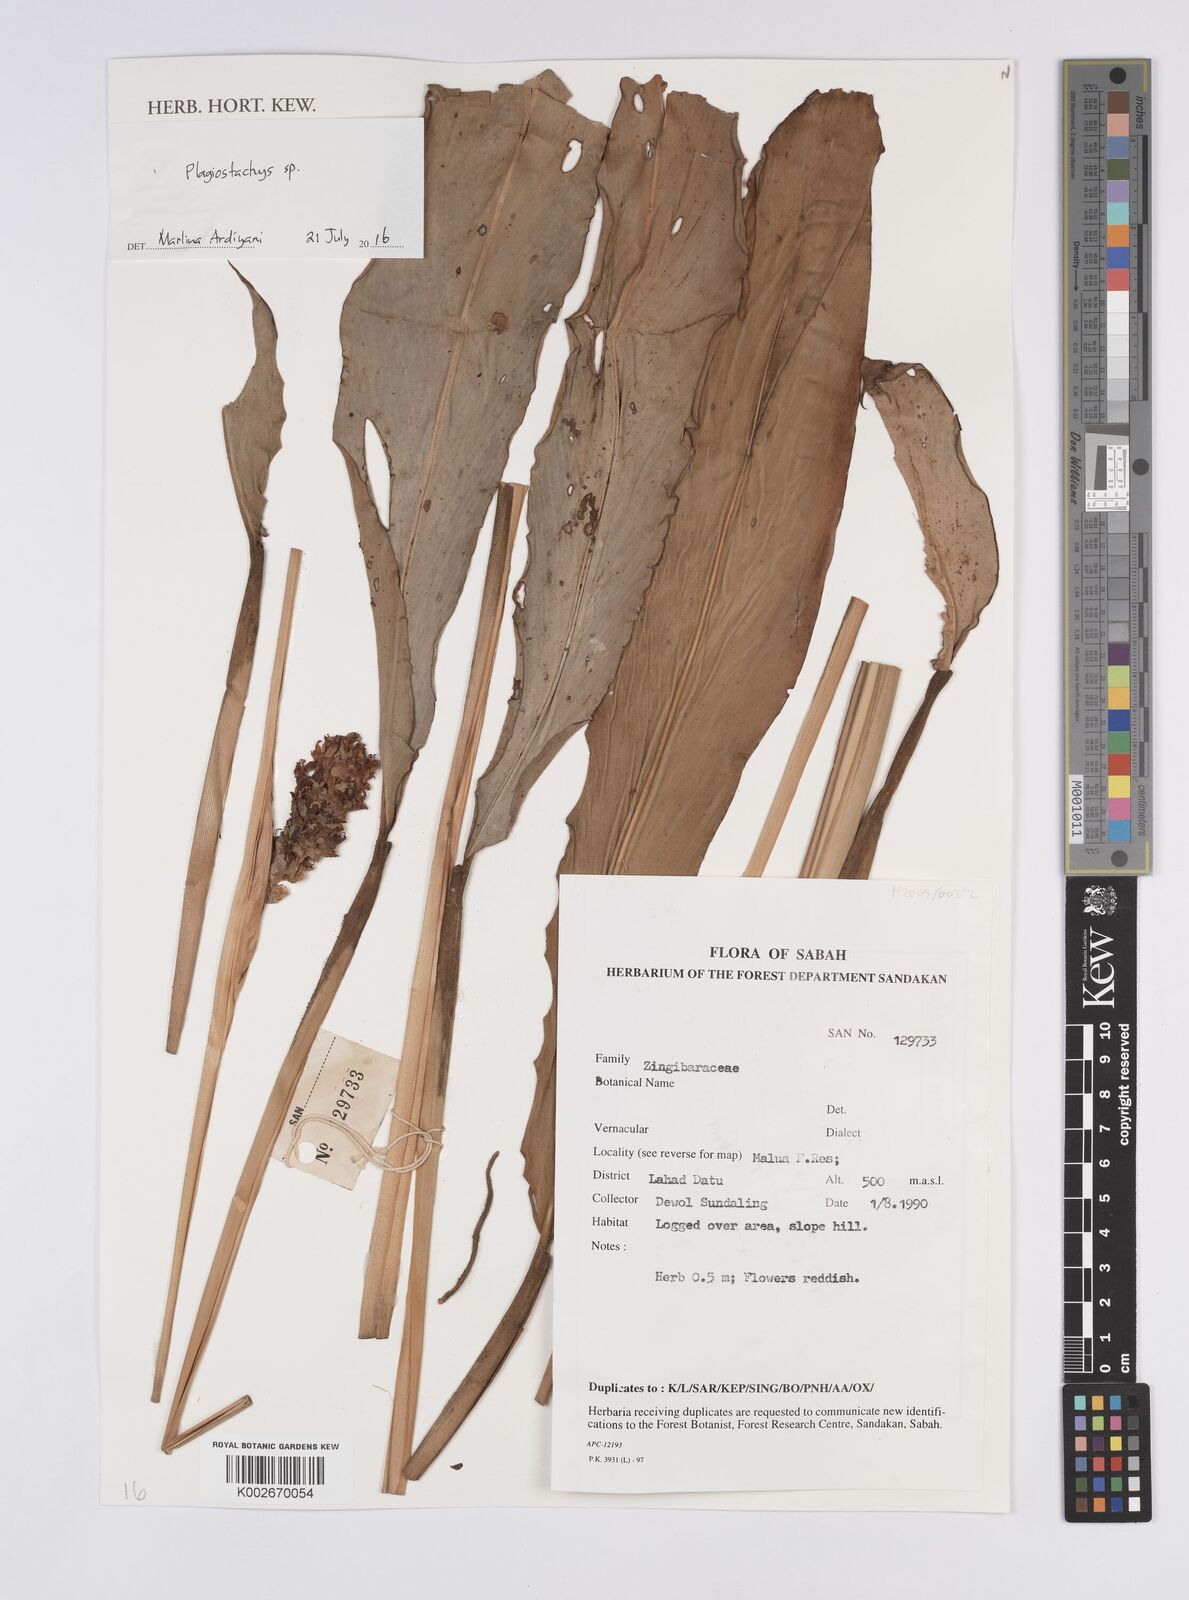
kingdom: Plantae
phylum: Tracheophyta
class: Liliopsida
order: Zingiberales
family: Zingiberaceae
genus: Plagiostachys
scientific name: Plagiostachys
